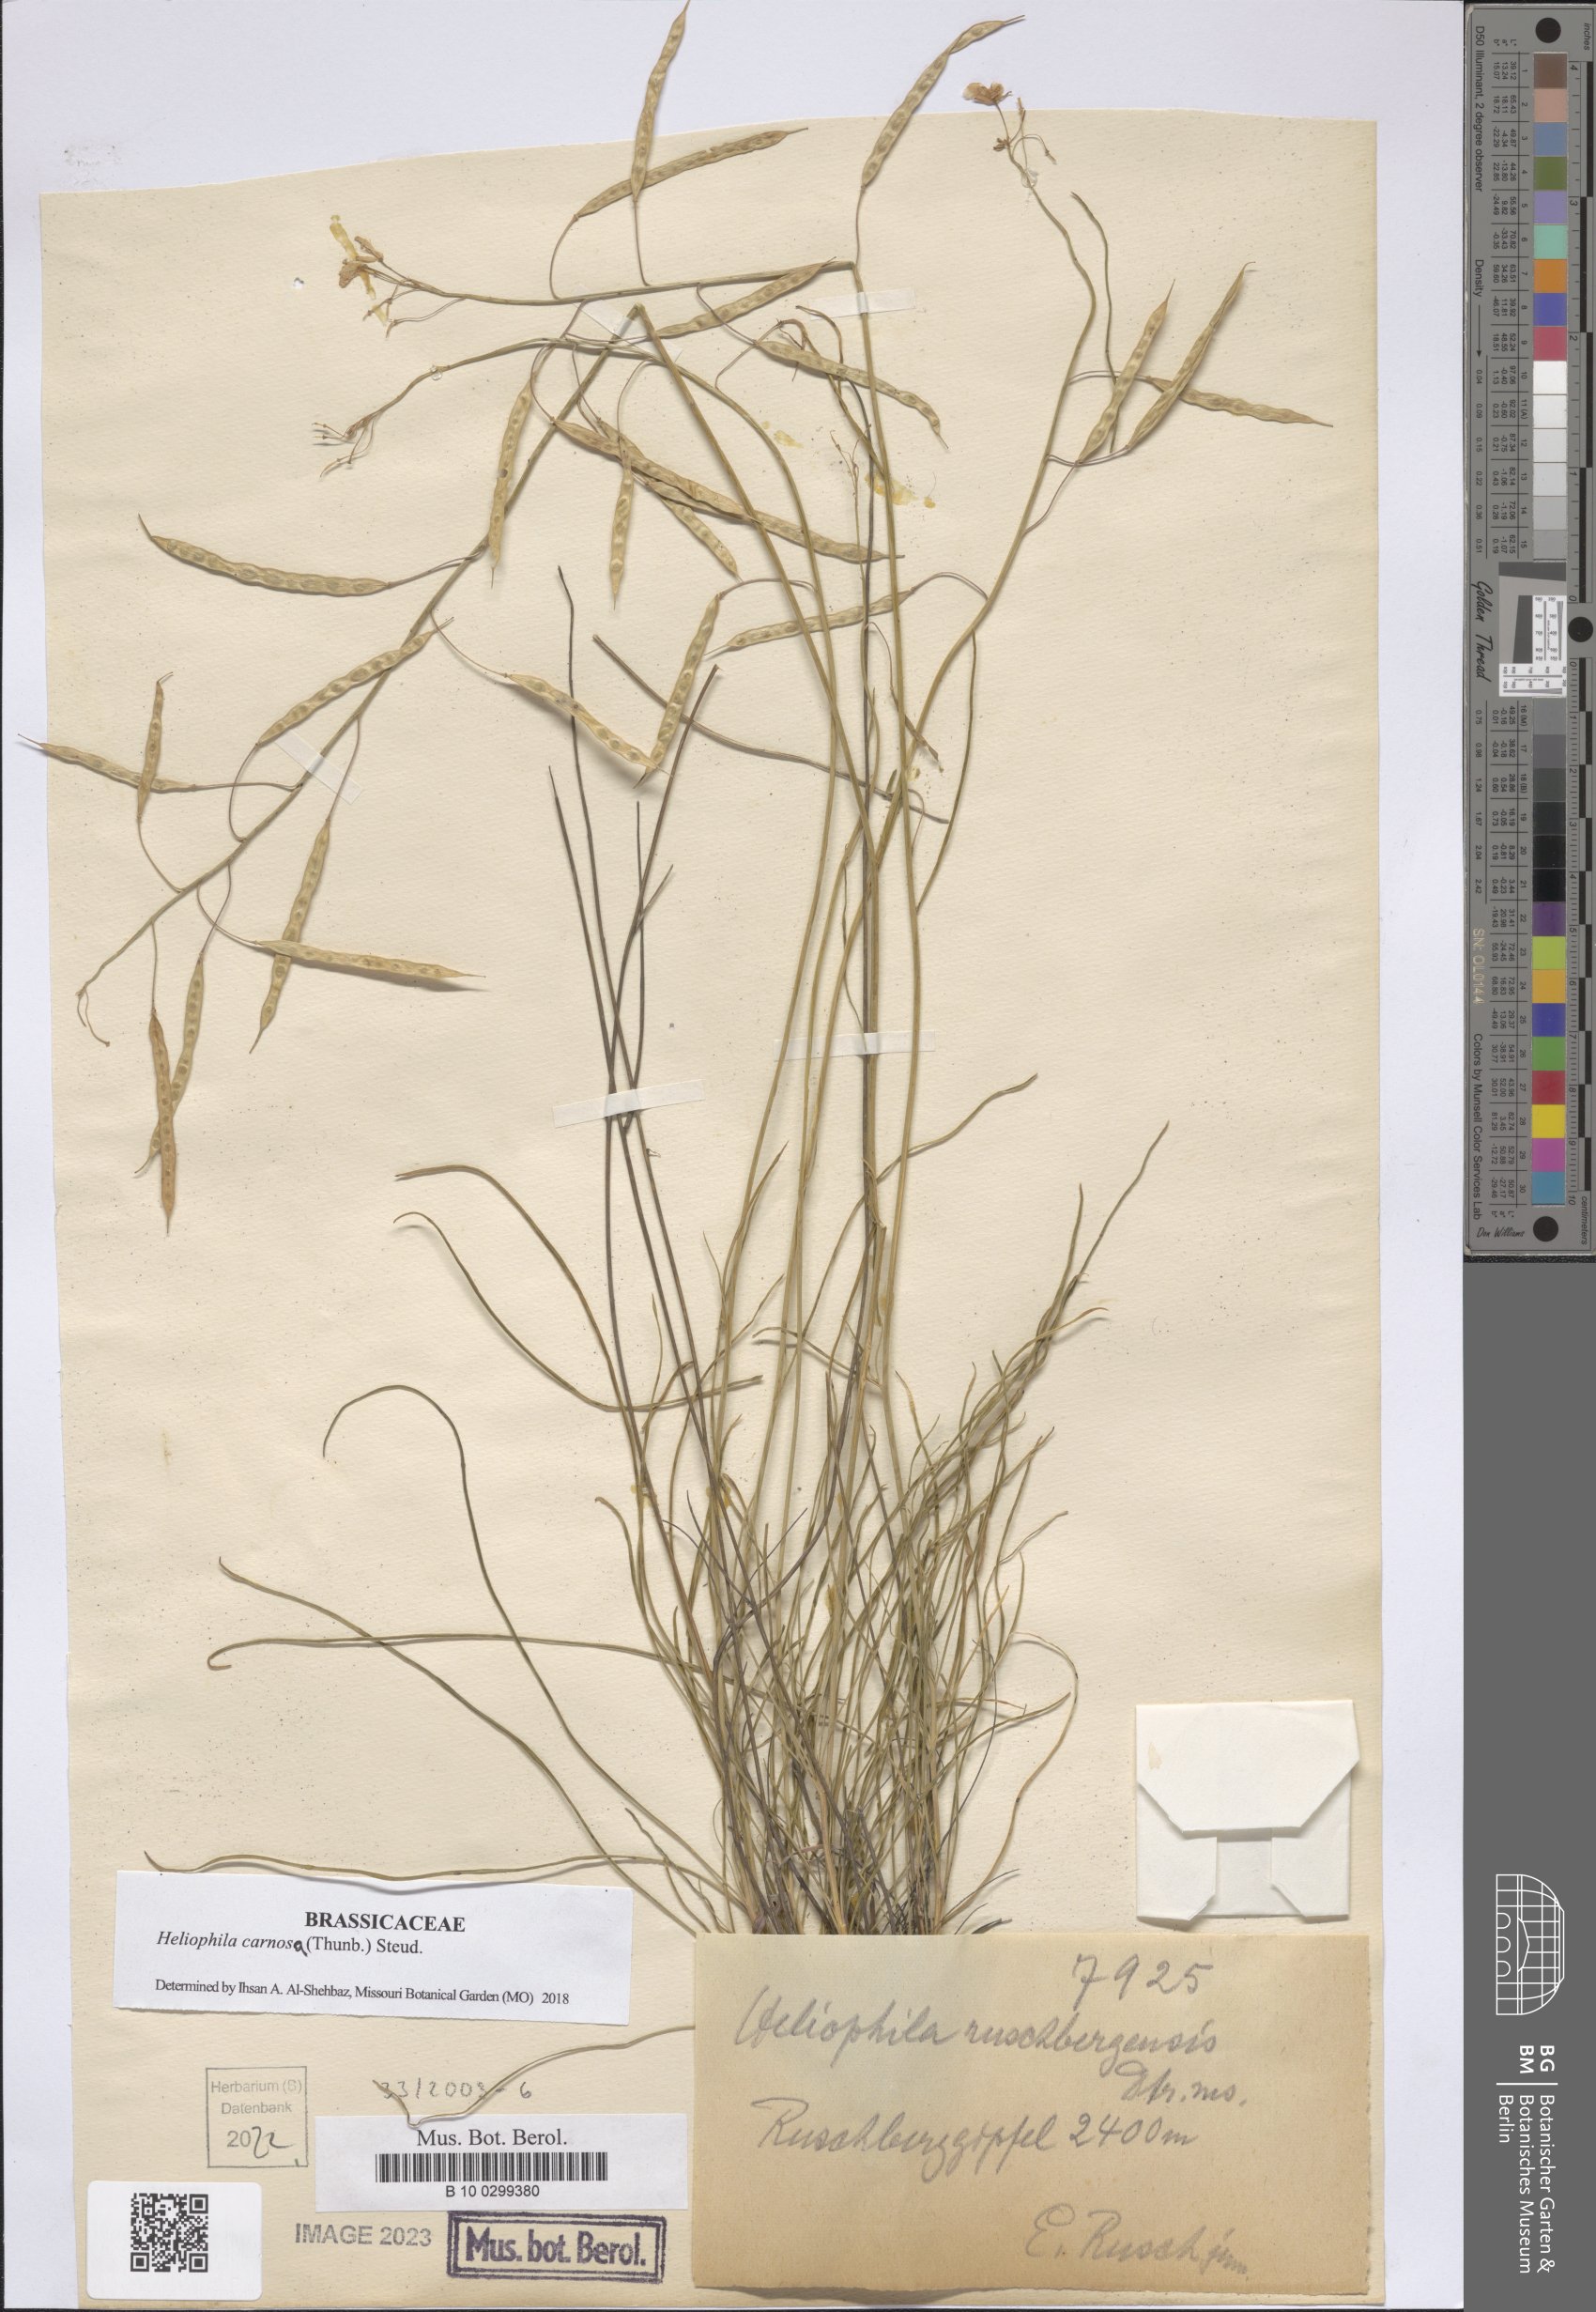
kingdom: Plantae
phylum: Tracheophyta
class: Magnoliopsida
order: Brassicales
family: Brassicaceae
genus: Heliophila
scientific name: Heliophila carnosa
